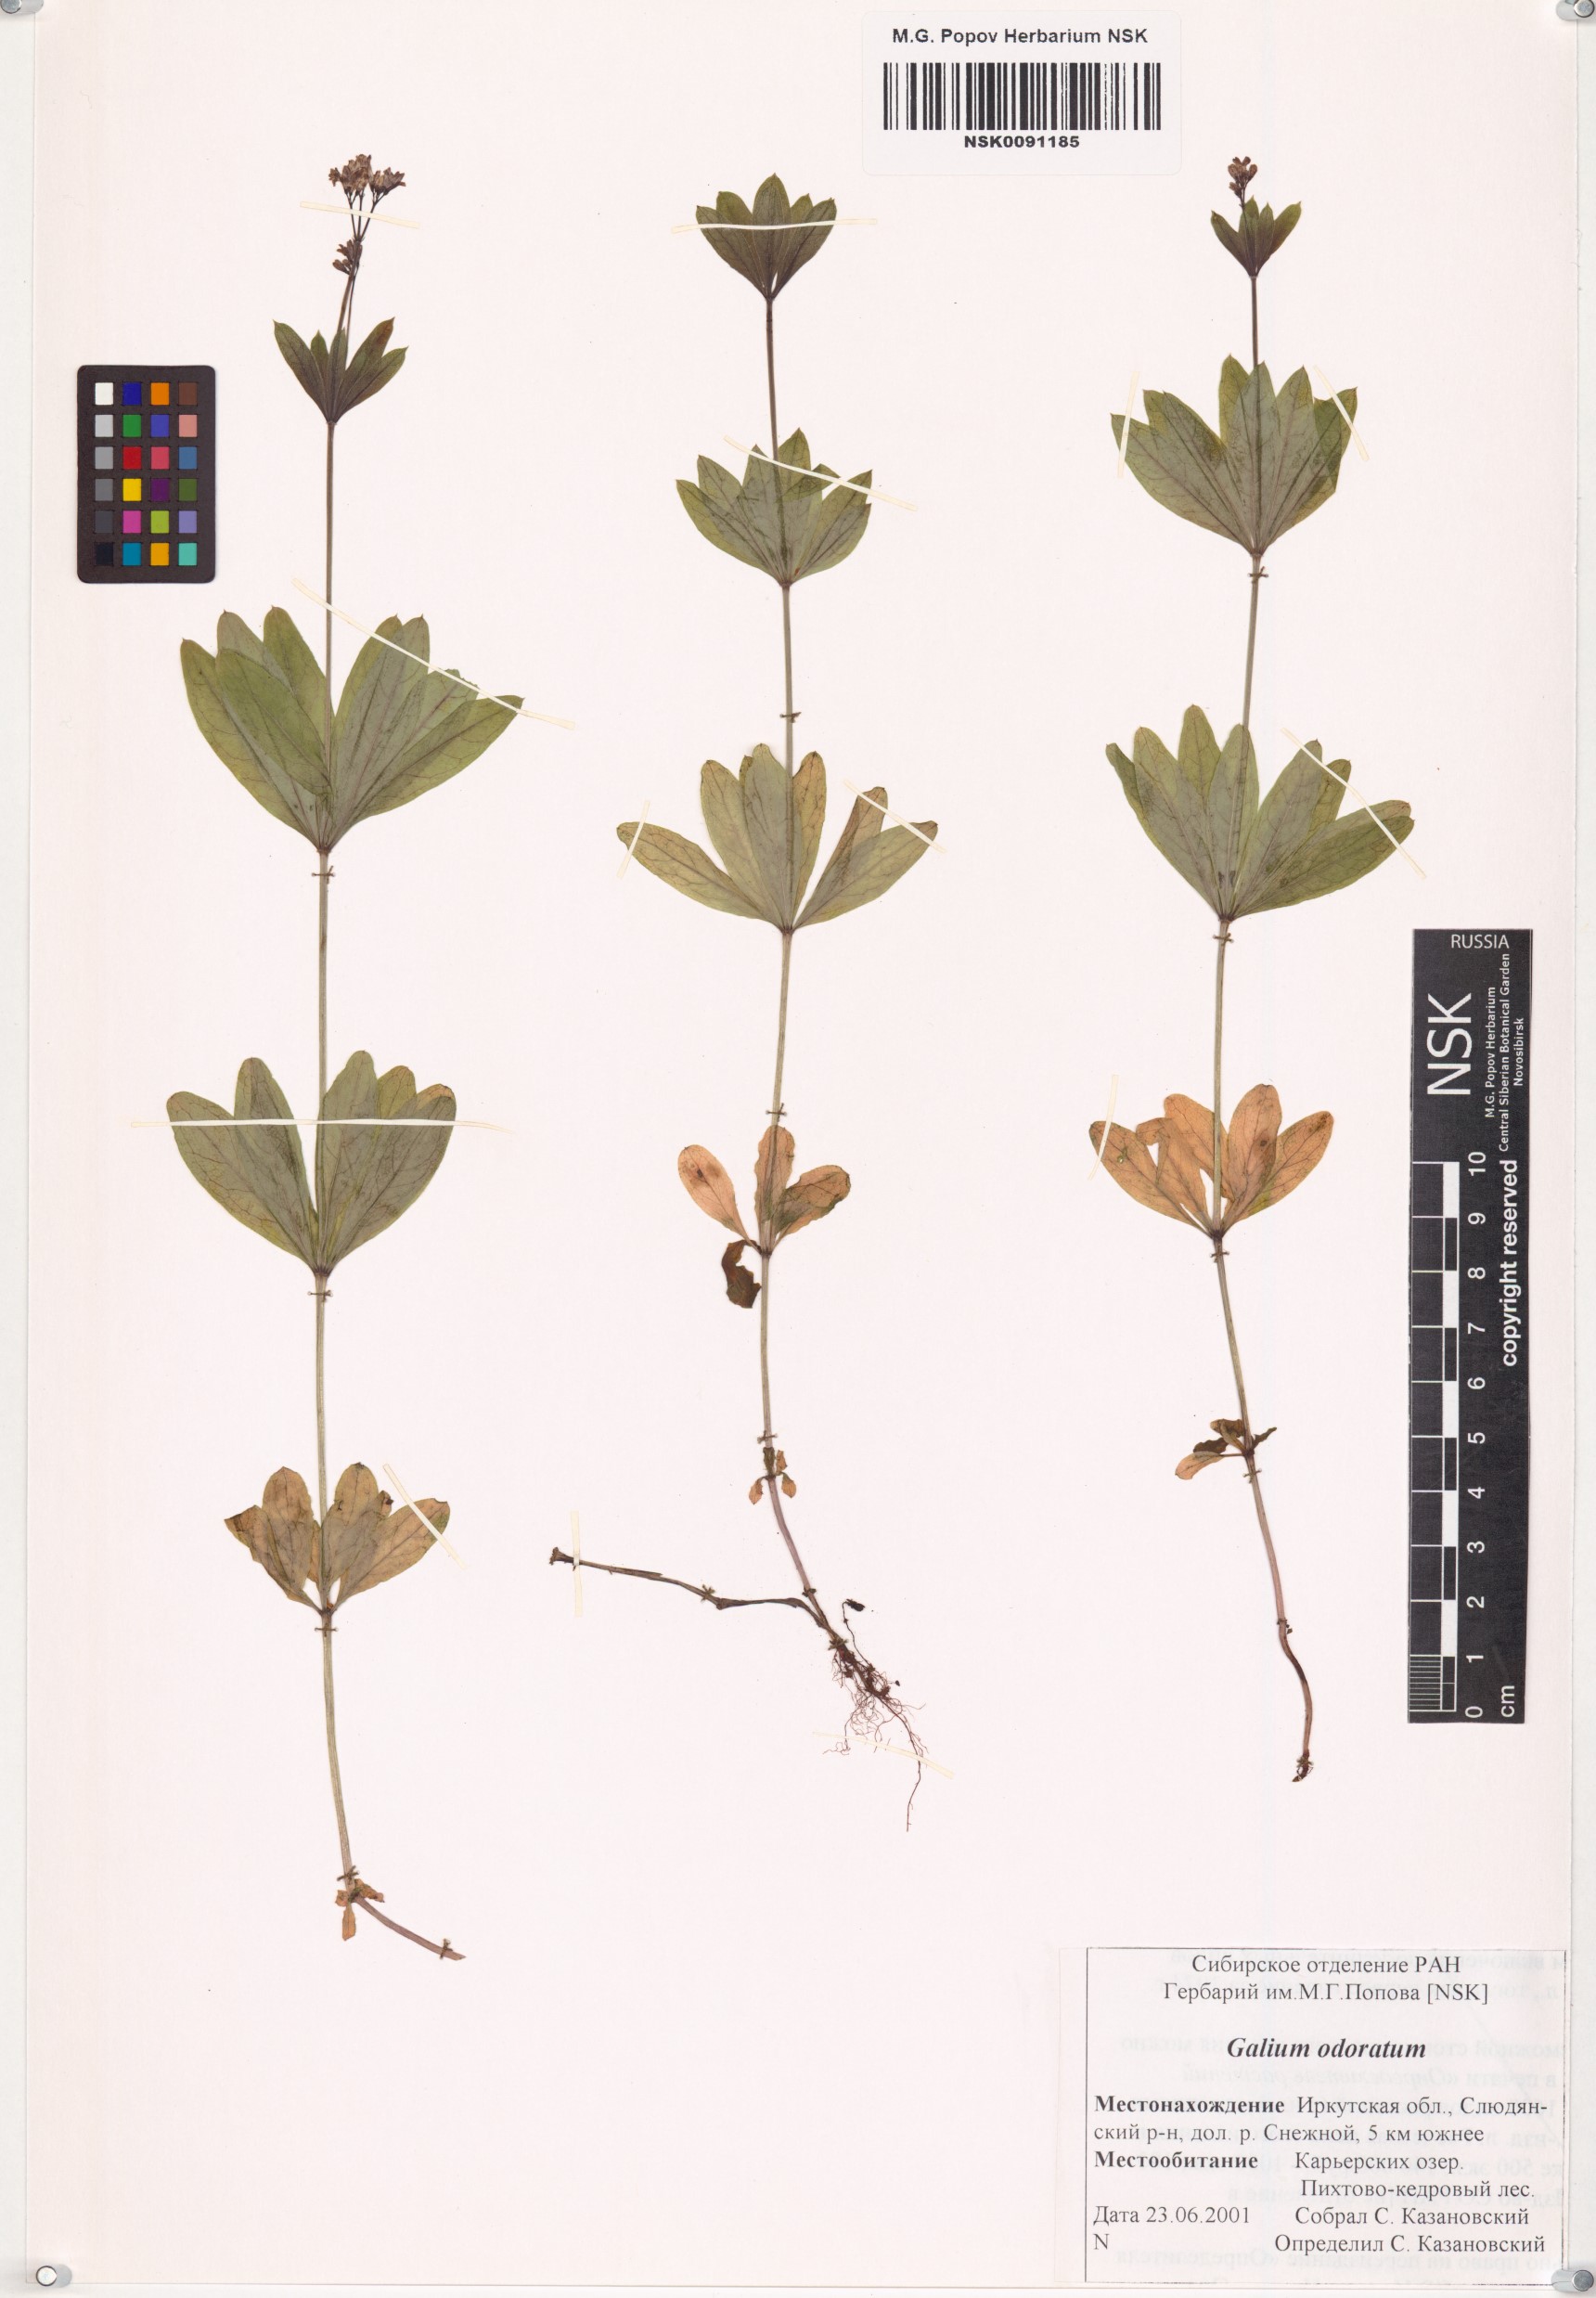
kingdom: Plantae
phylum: Tracheophyta
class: Magnoliopsida
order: Gentianales
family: Rubiaceae
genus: Galium
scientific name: Galium odoratum
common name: Sweet woodruff
